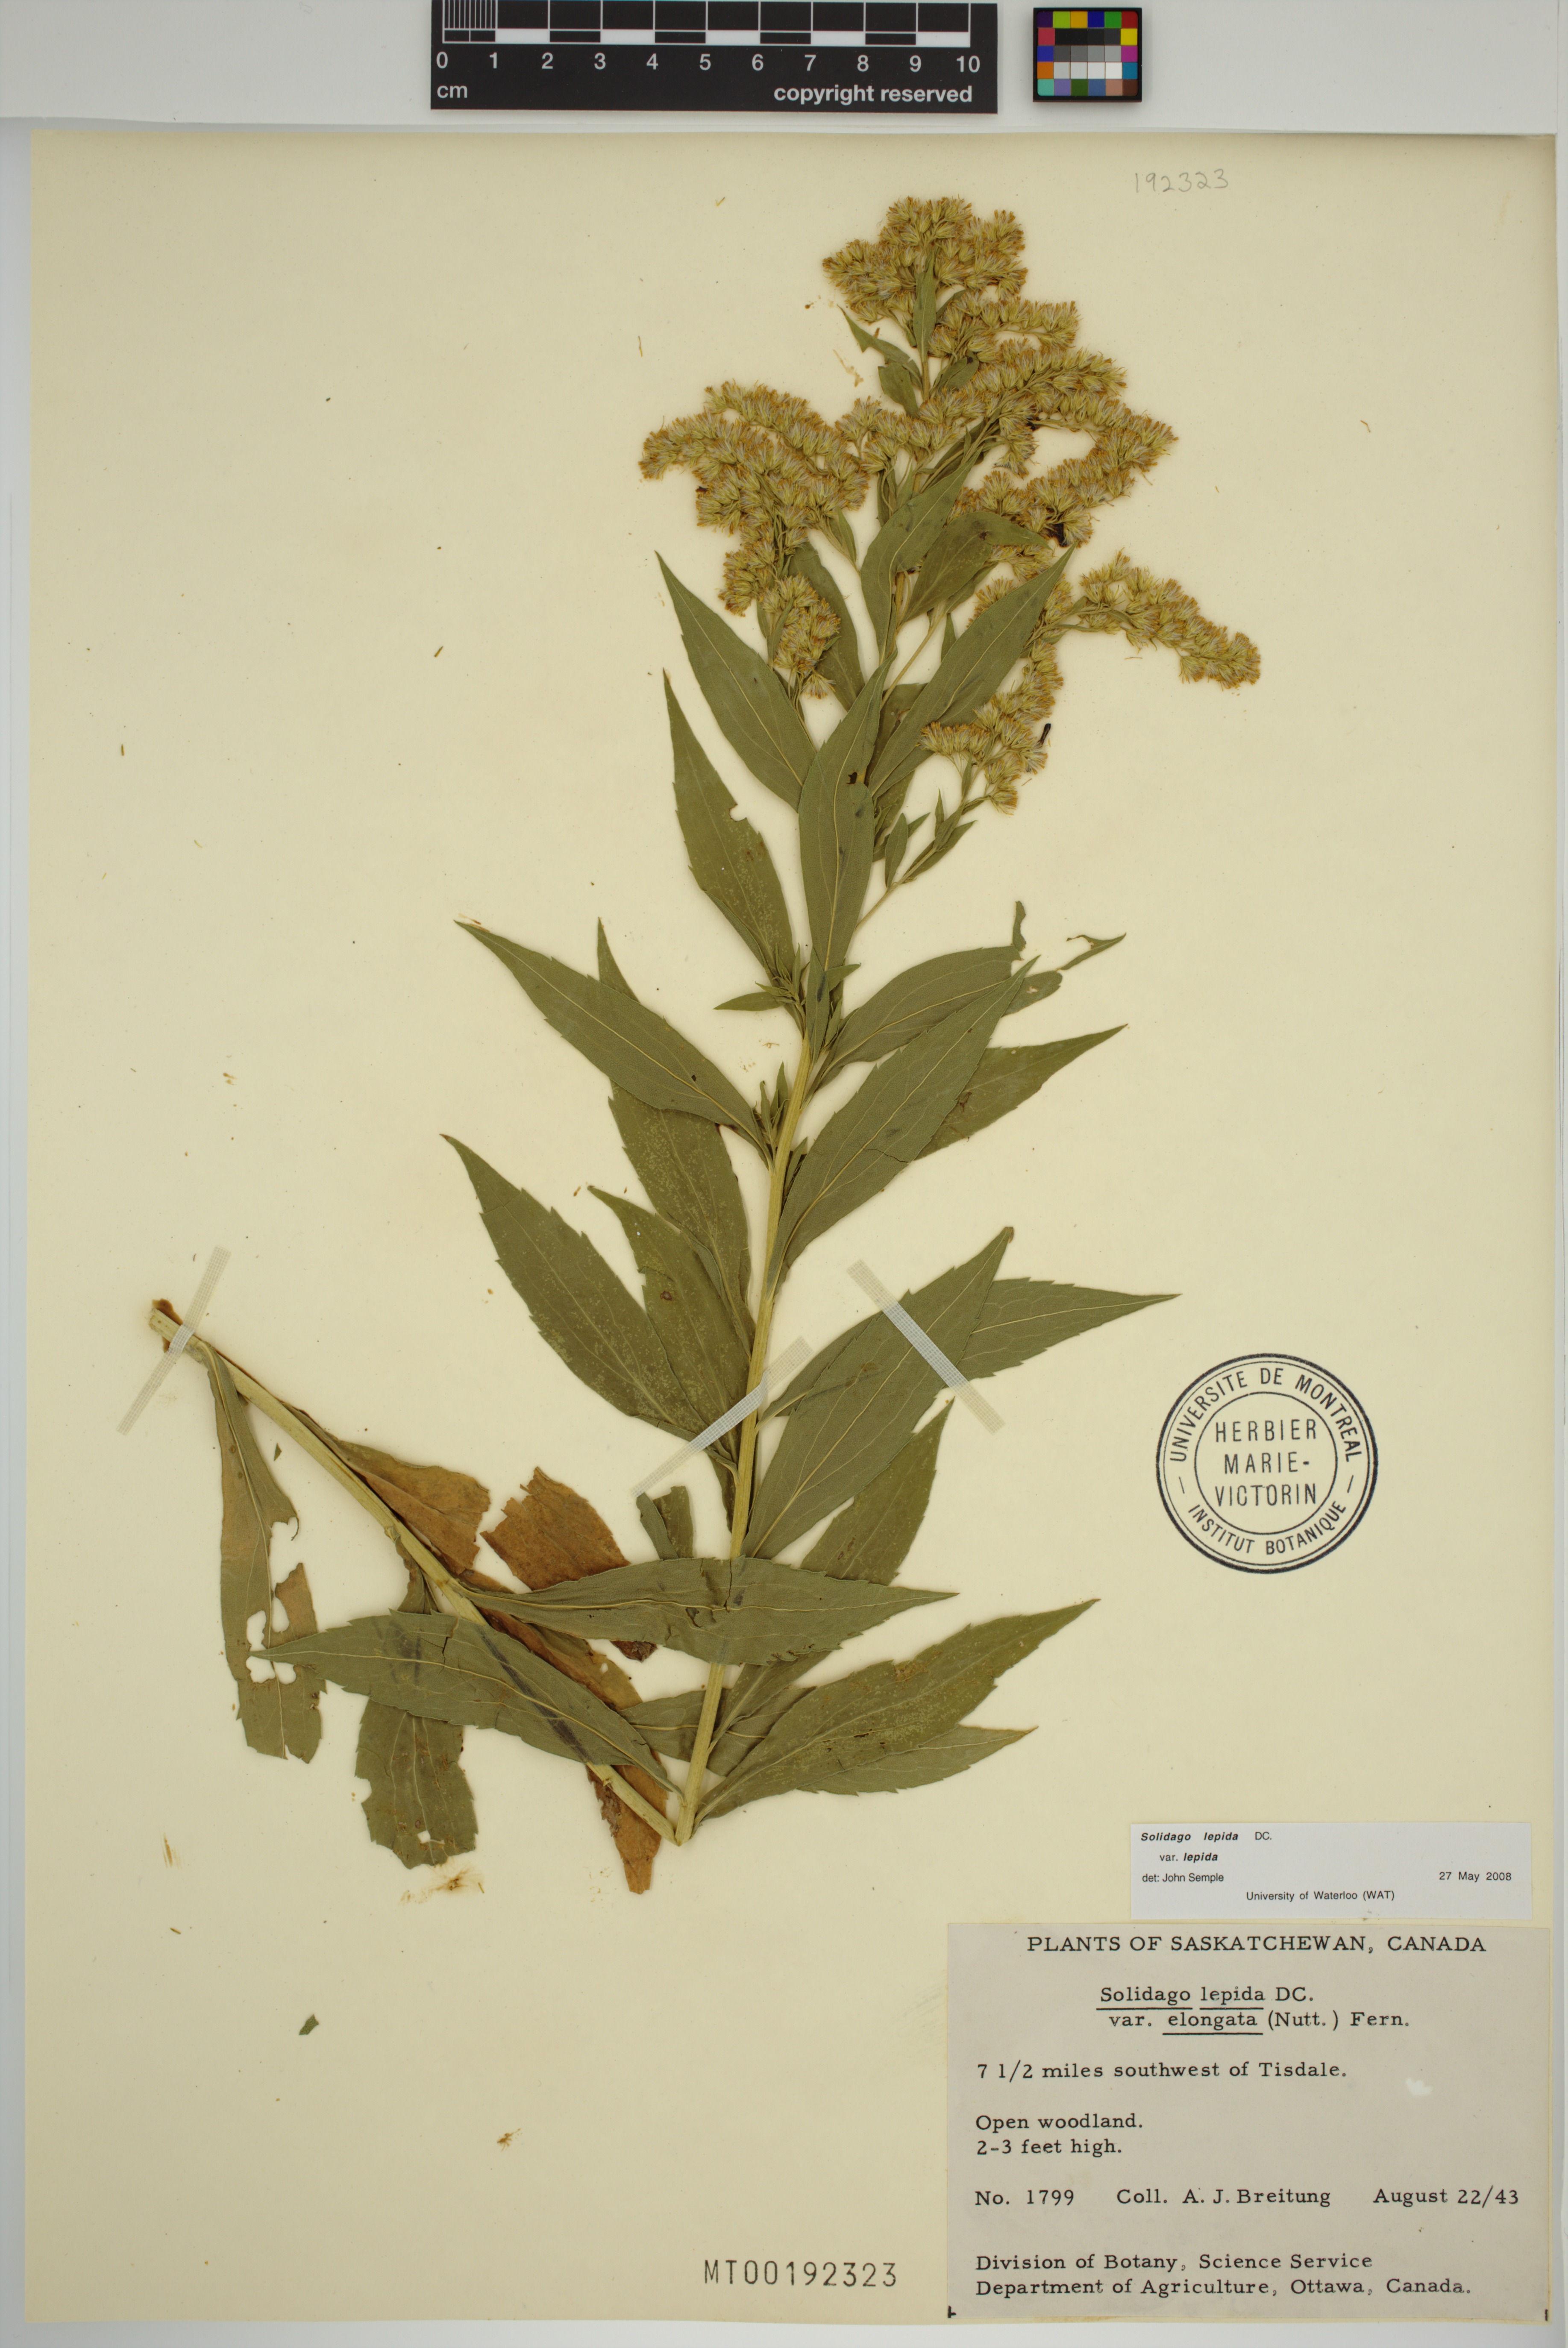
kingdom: Plantae
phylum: Tracheophyta
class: Magnoliopsida
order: Asterales
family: Asteraceae
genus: Solidago
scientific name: Solidago lepida
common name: Western canada goldenrod
